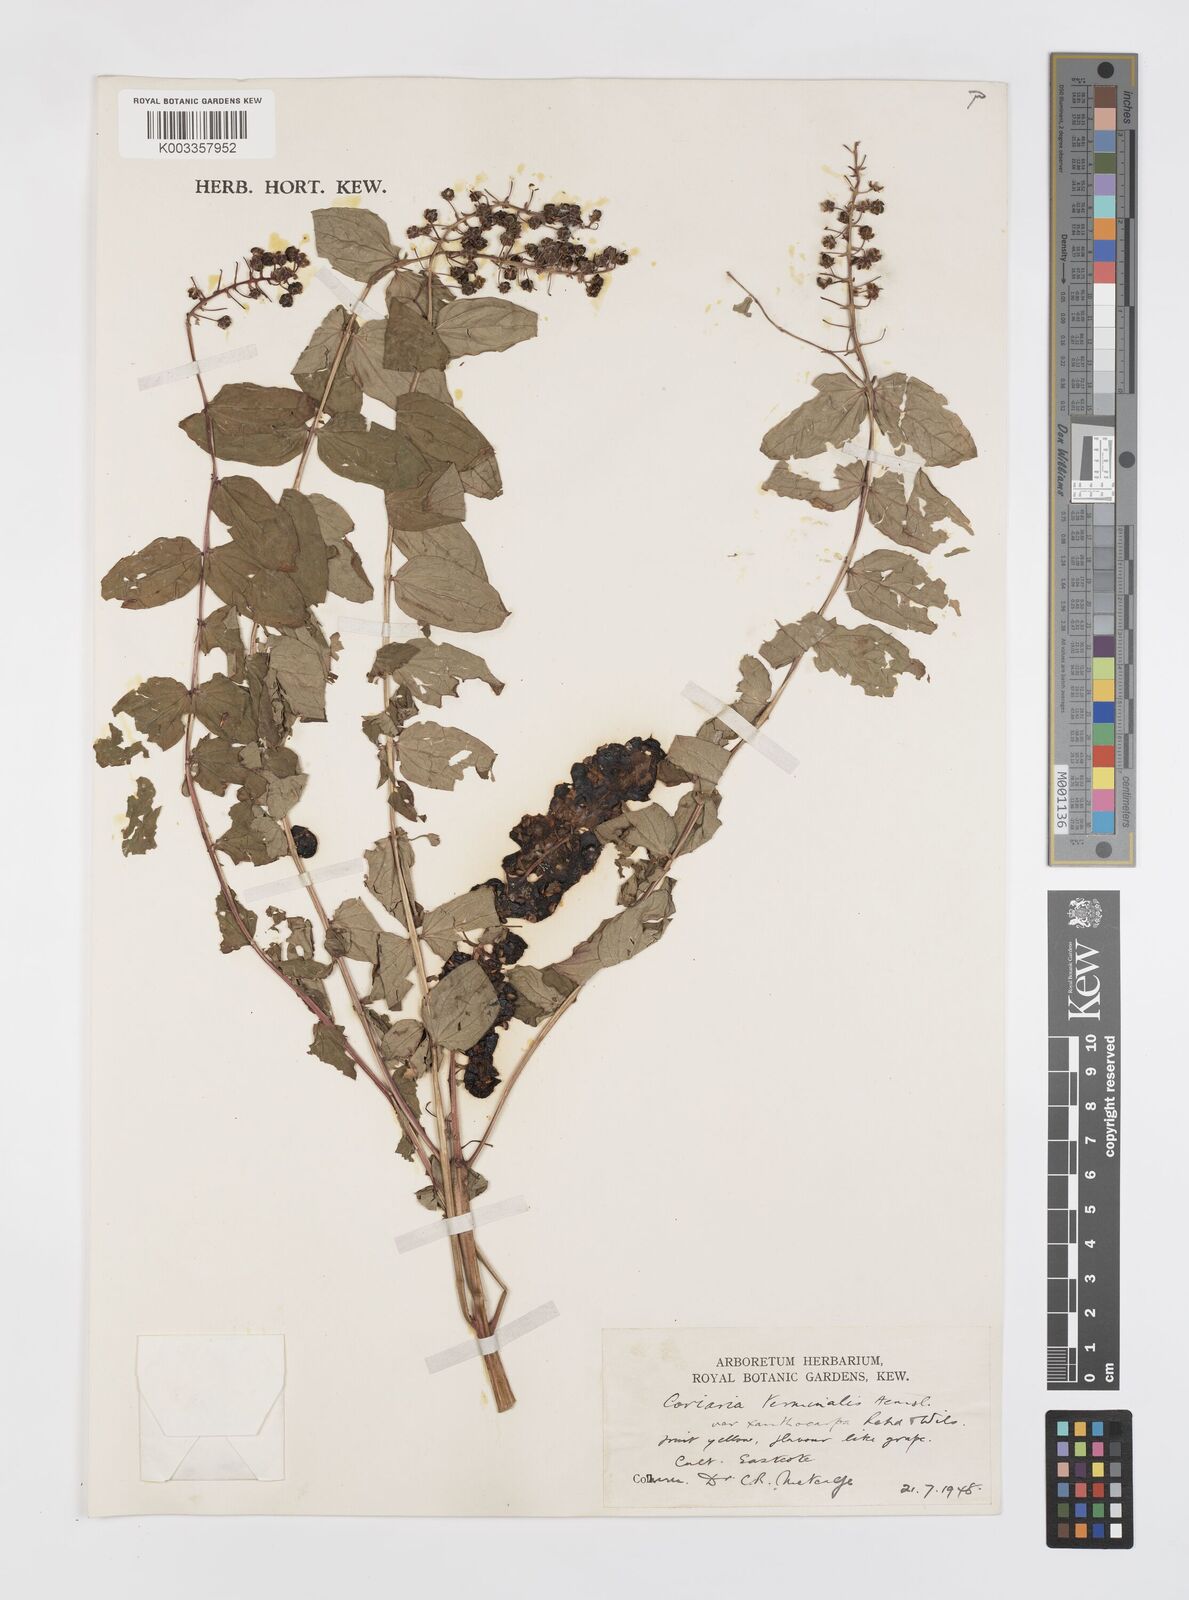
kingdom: Plantae
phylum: Tracheophyta
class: Magnoliopsida
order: Cucurbitales
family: Coriariaceae
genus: Coriaria
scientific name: Coriaria terminalis
